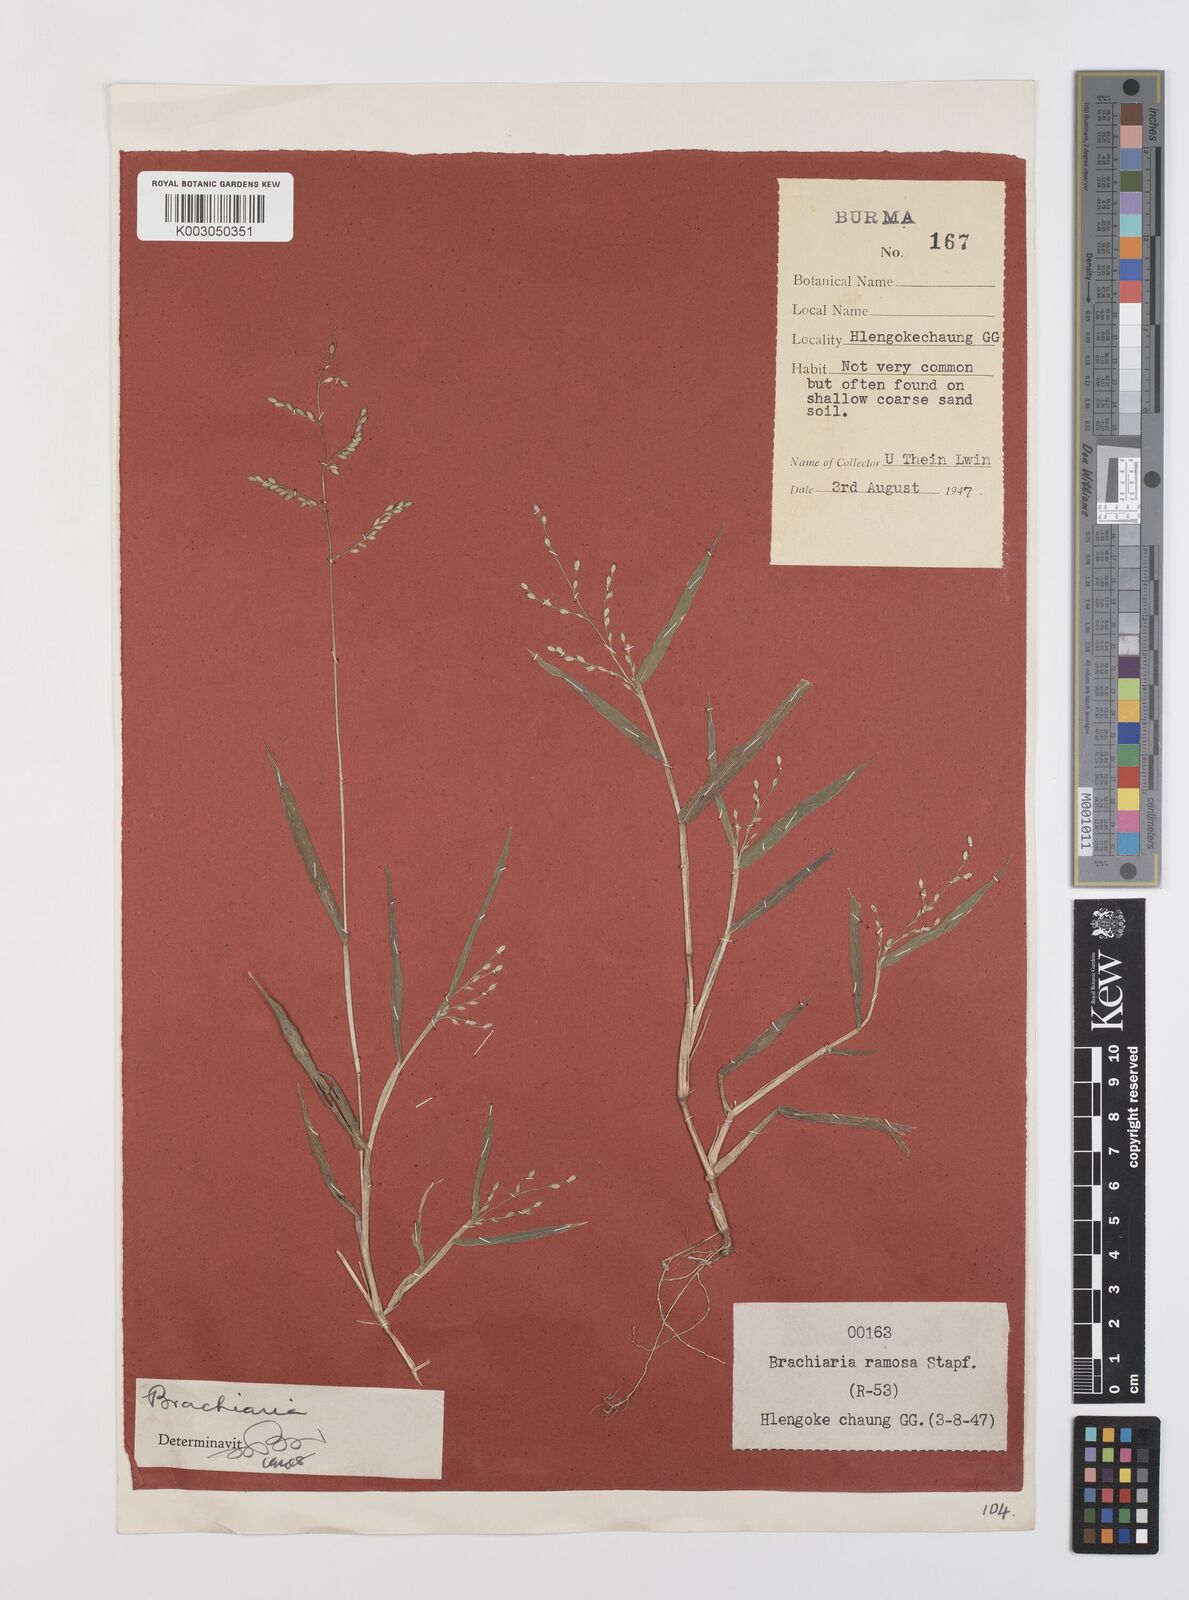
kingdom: Plantae
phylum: Tracheophyta
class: Liliopsida
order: Poales
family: Poaceae
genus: Urochloa
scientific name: Urochloa ramosa
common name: Browntop millet
